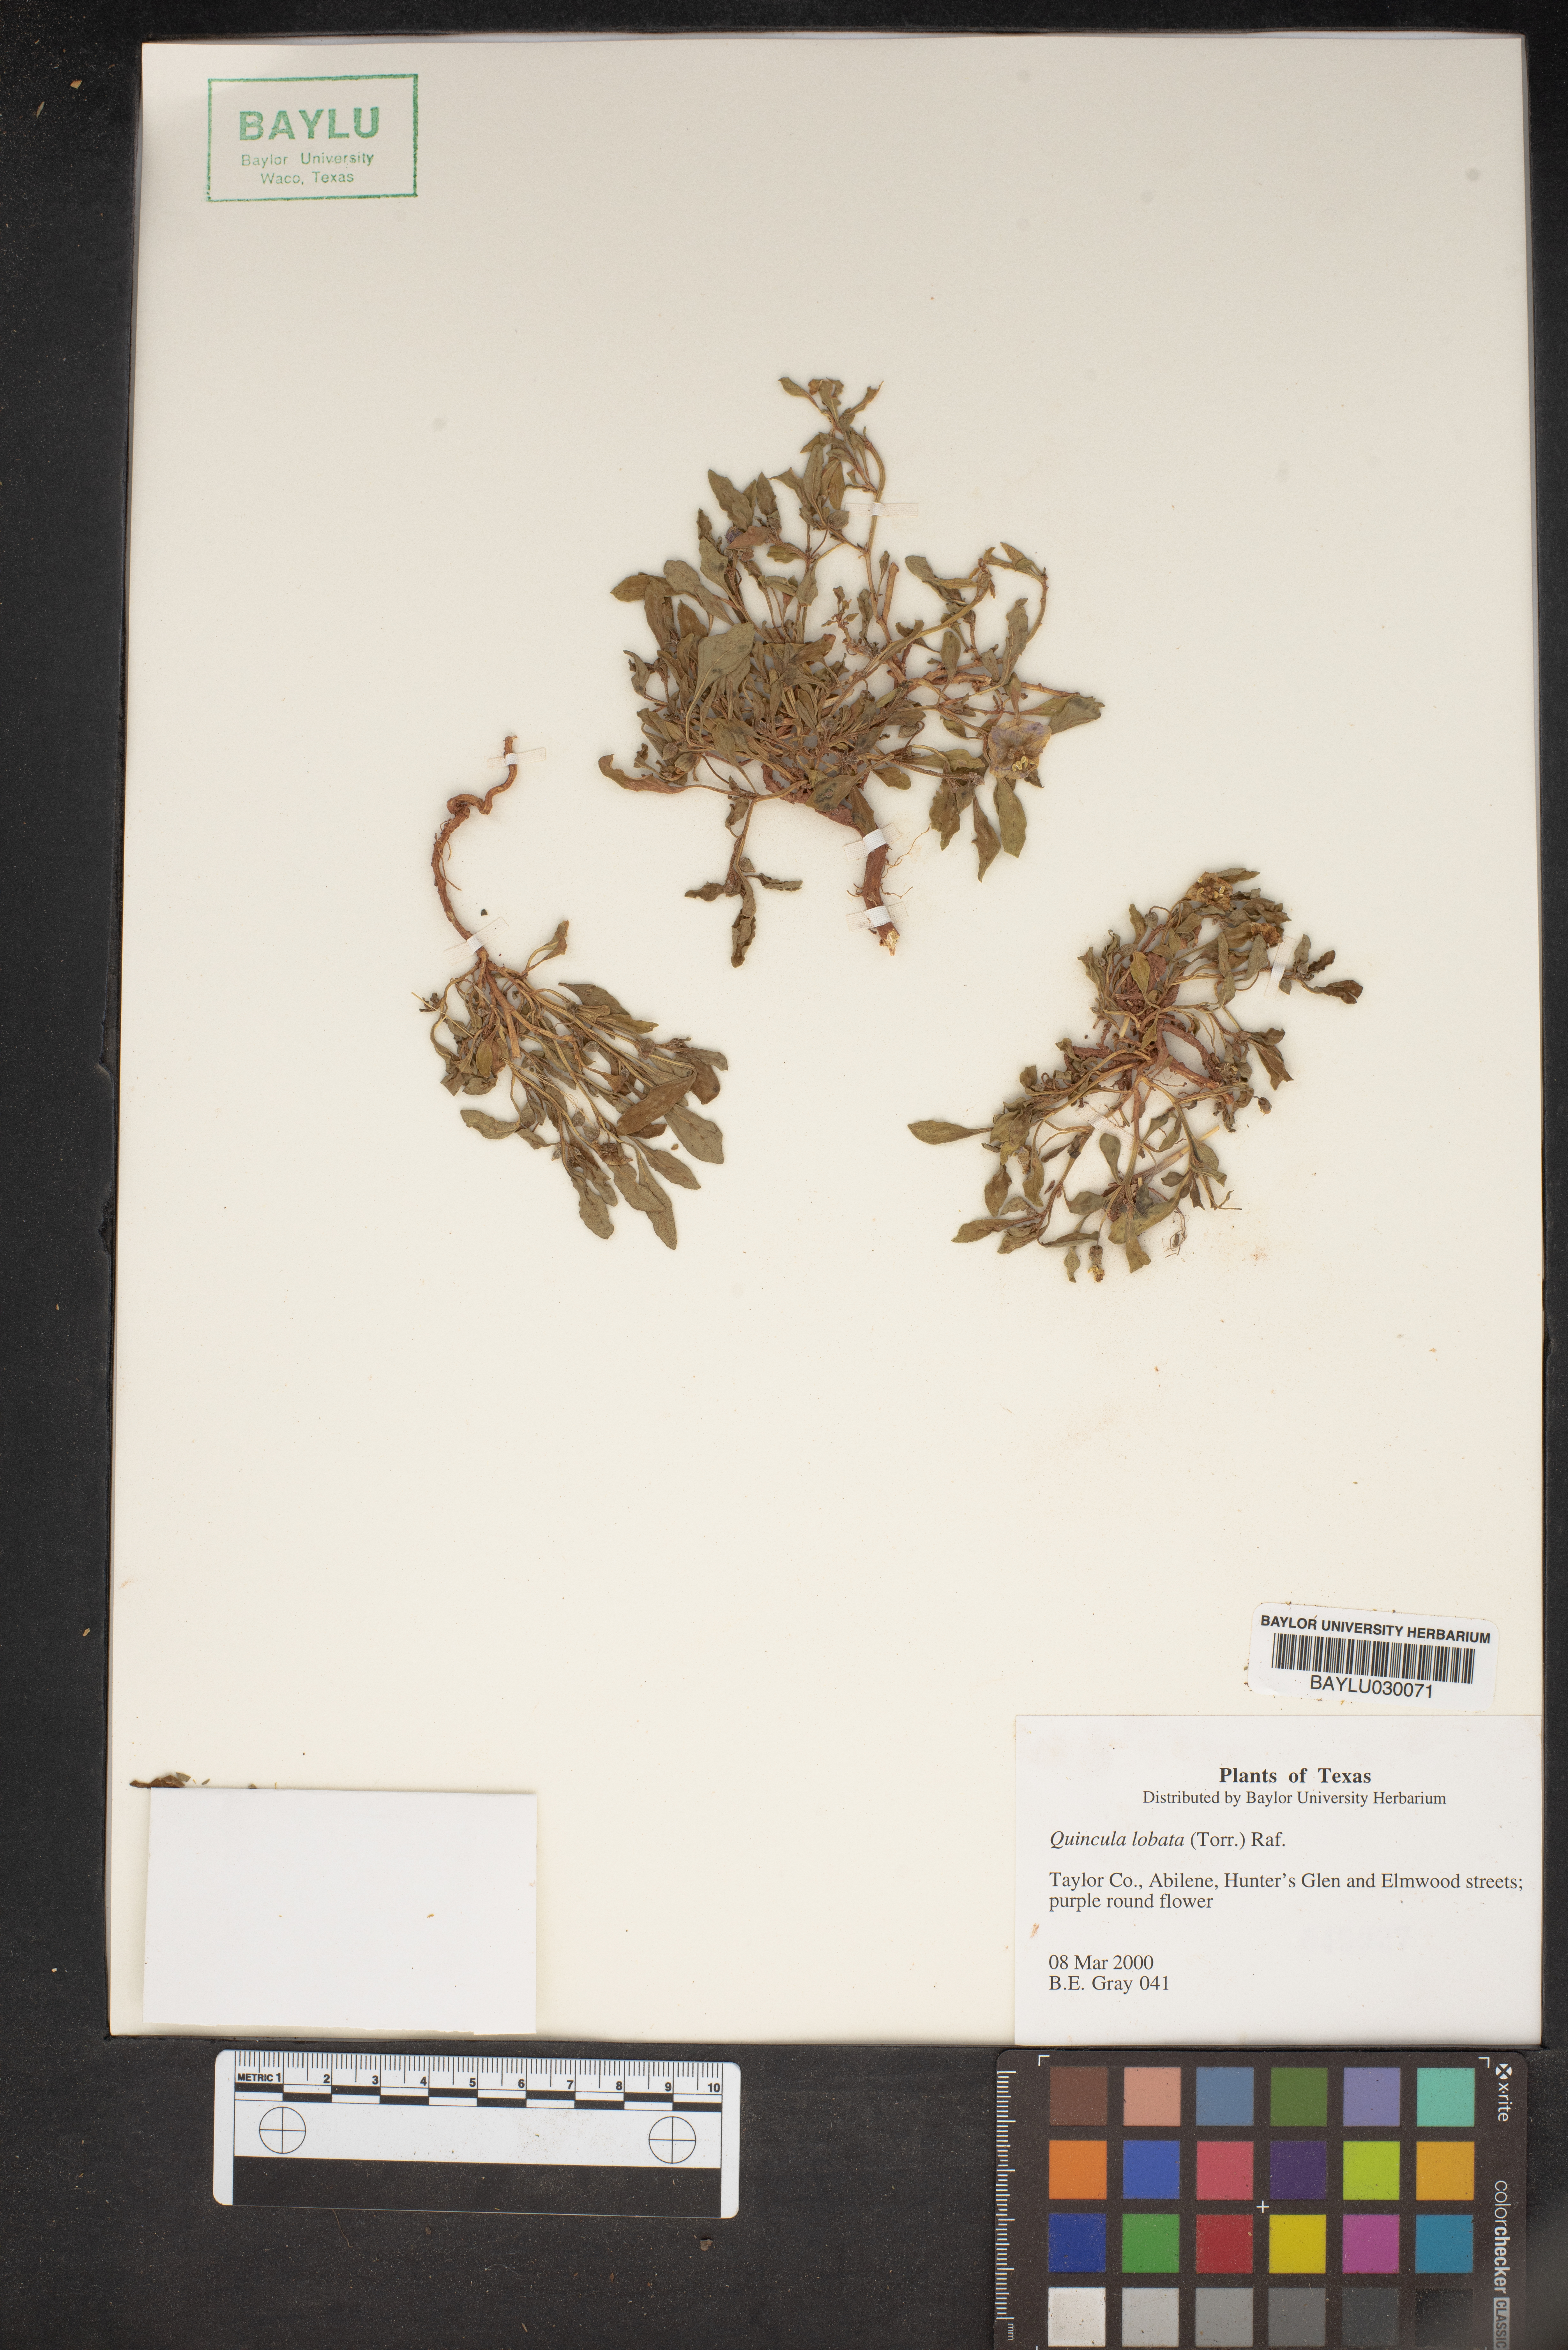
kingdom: Plantae
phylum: Tracheophyta
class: Magnoliopsida
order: Solanales
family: Solanaceae
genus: Quincula
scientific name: Quincula lobata
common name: Purple-ground-cherry
